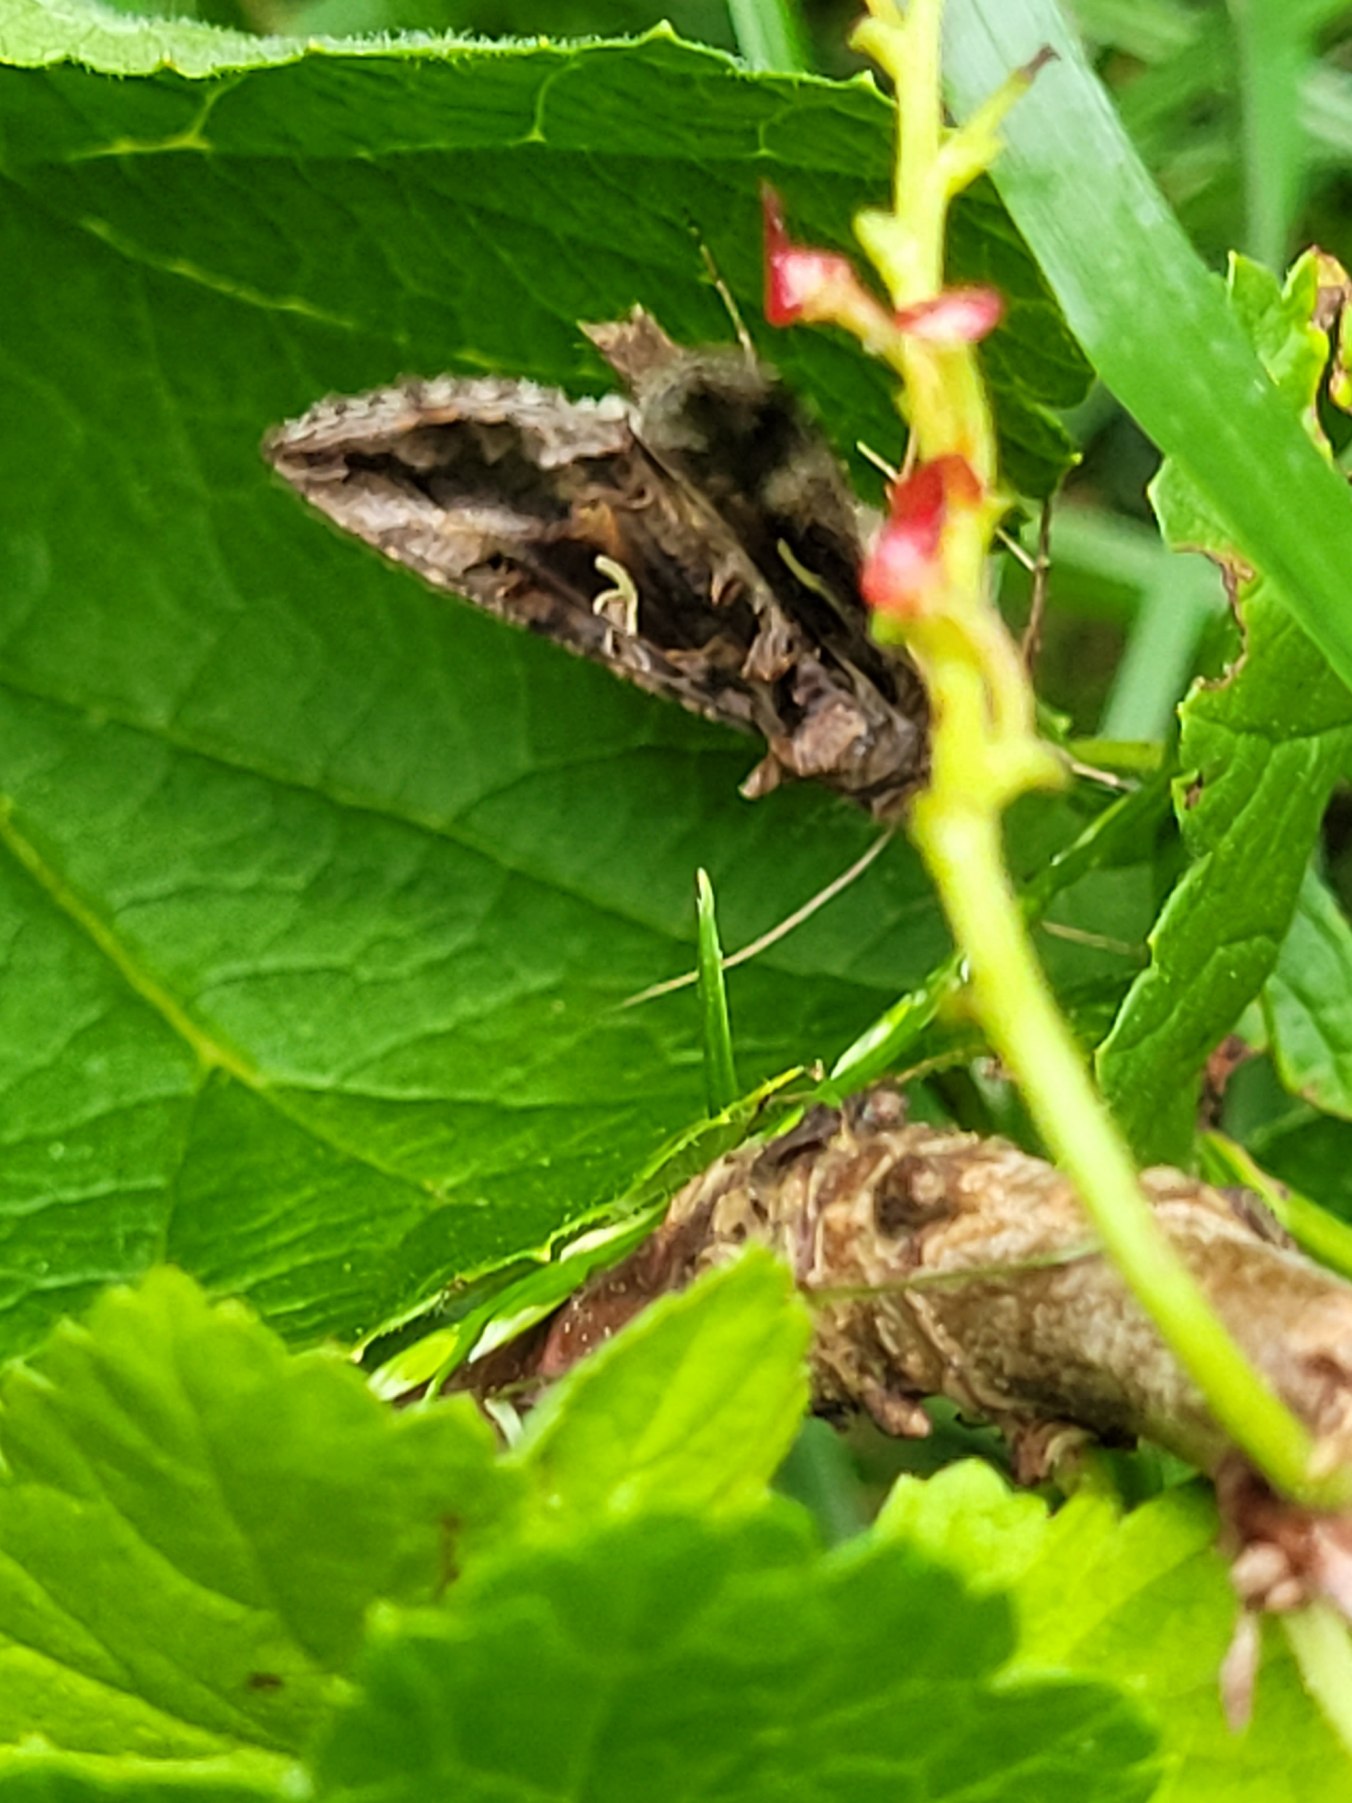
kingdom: Animalia
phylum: Arthropoda
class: Insecta
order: Lepidoptera
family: Noctuidae
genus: Autographa
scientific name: Autographa gamma
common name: Gammaugle
